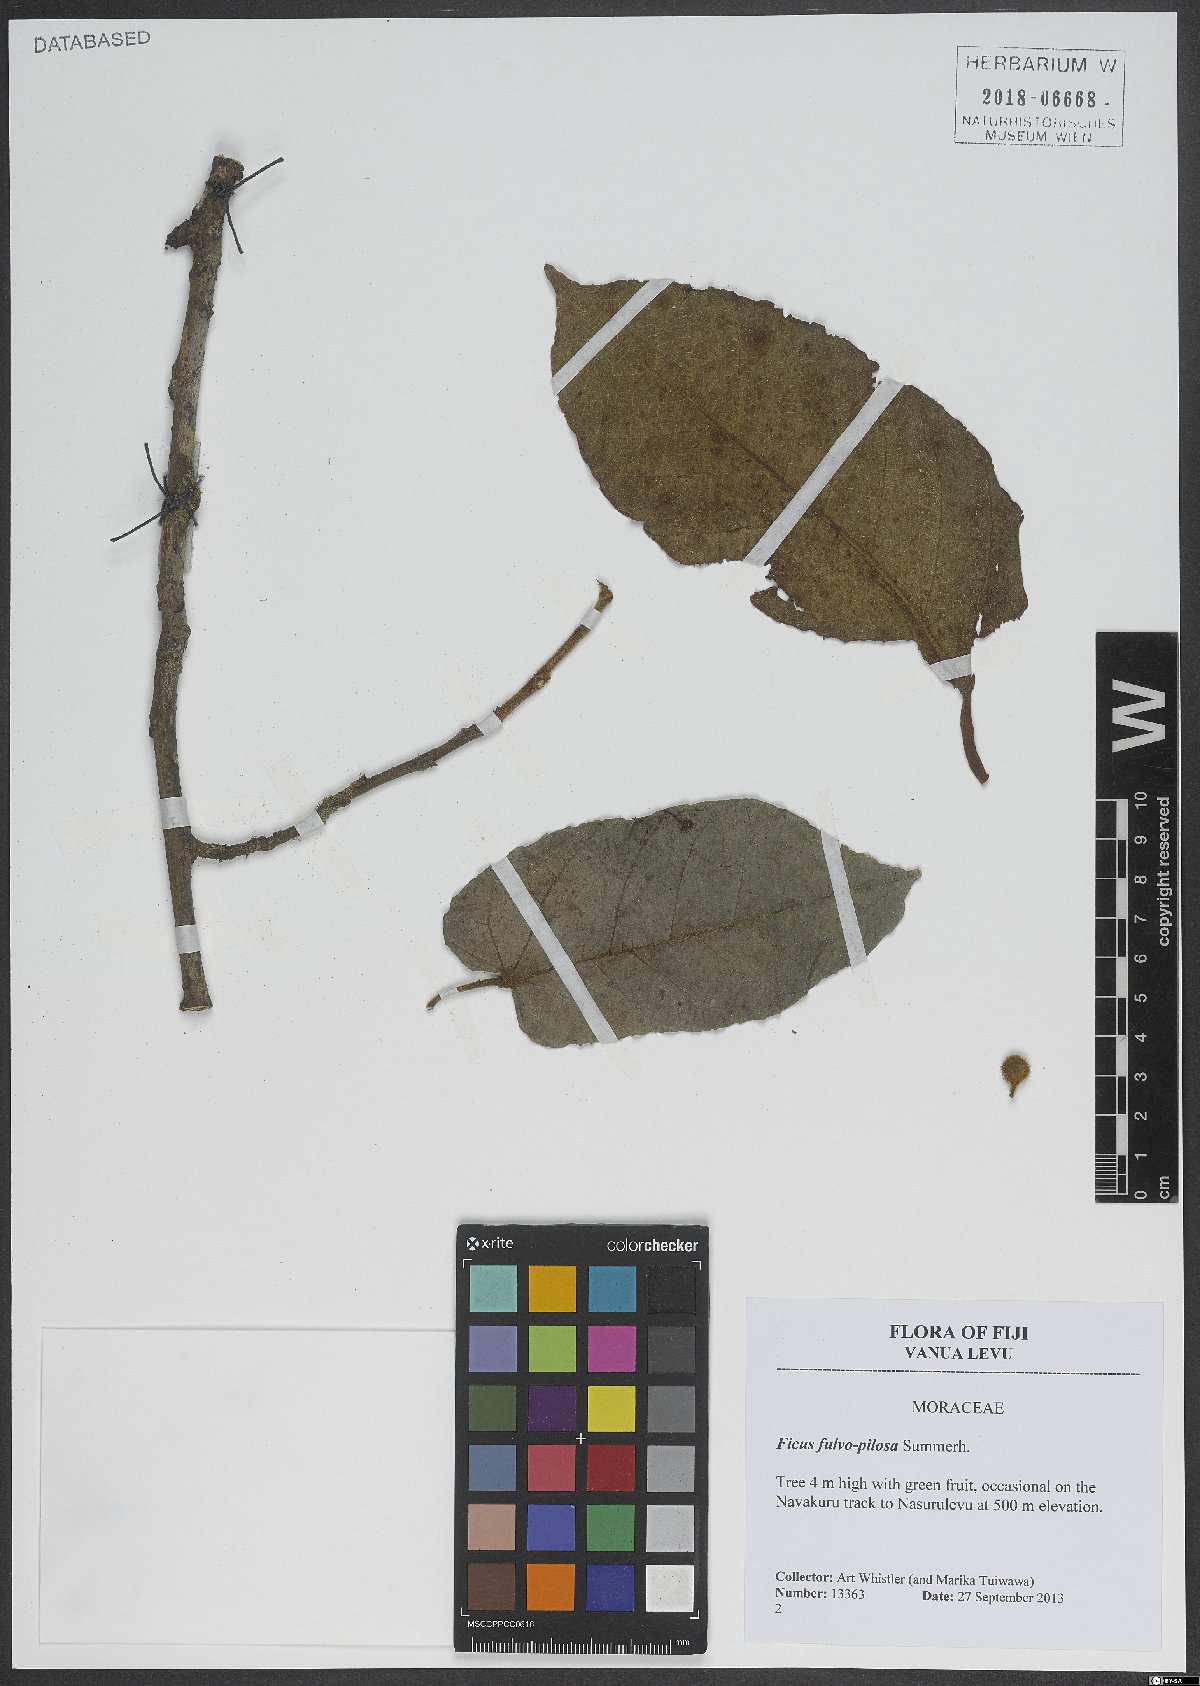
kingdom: Plantae
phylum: Tracheophyta
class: Magnoliopsida
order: Rosales
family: Moraceae
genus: Ficus
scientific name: Ficus fulvopilosa
